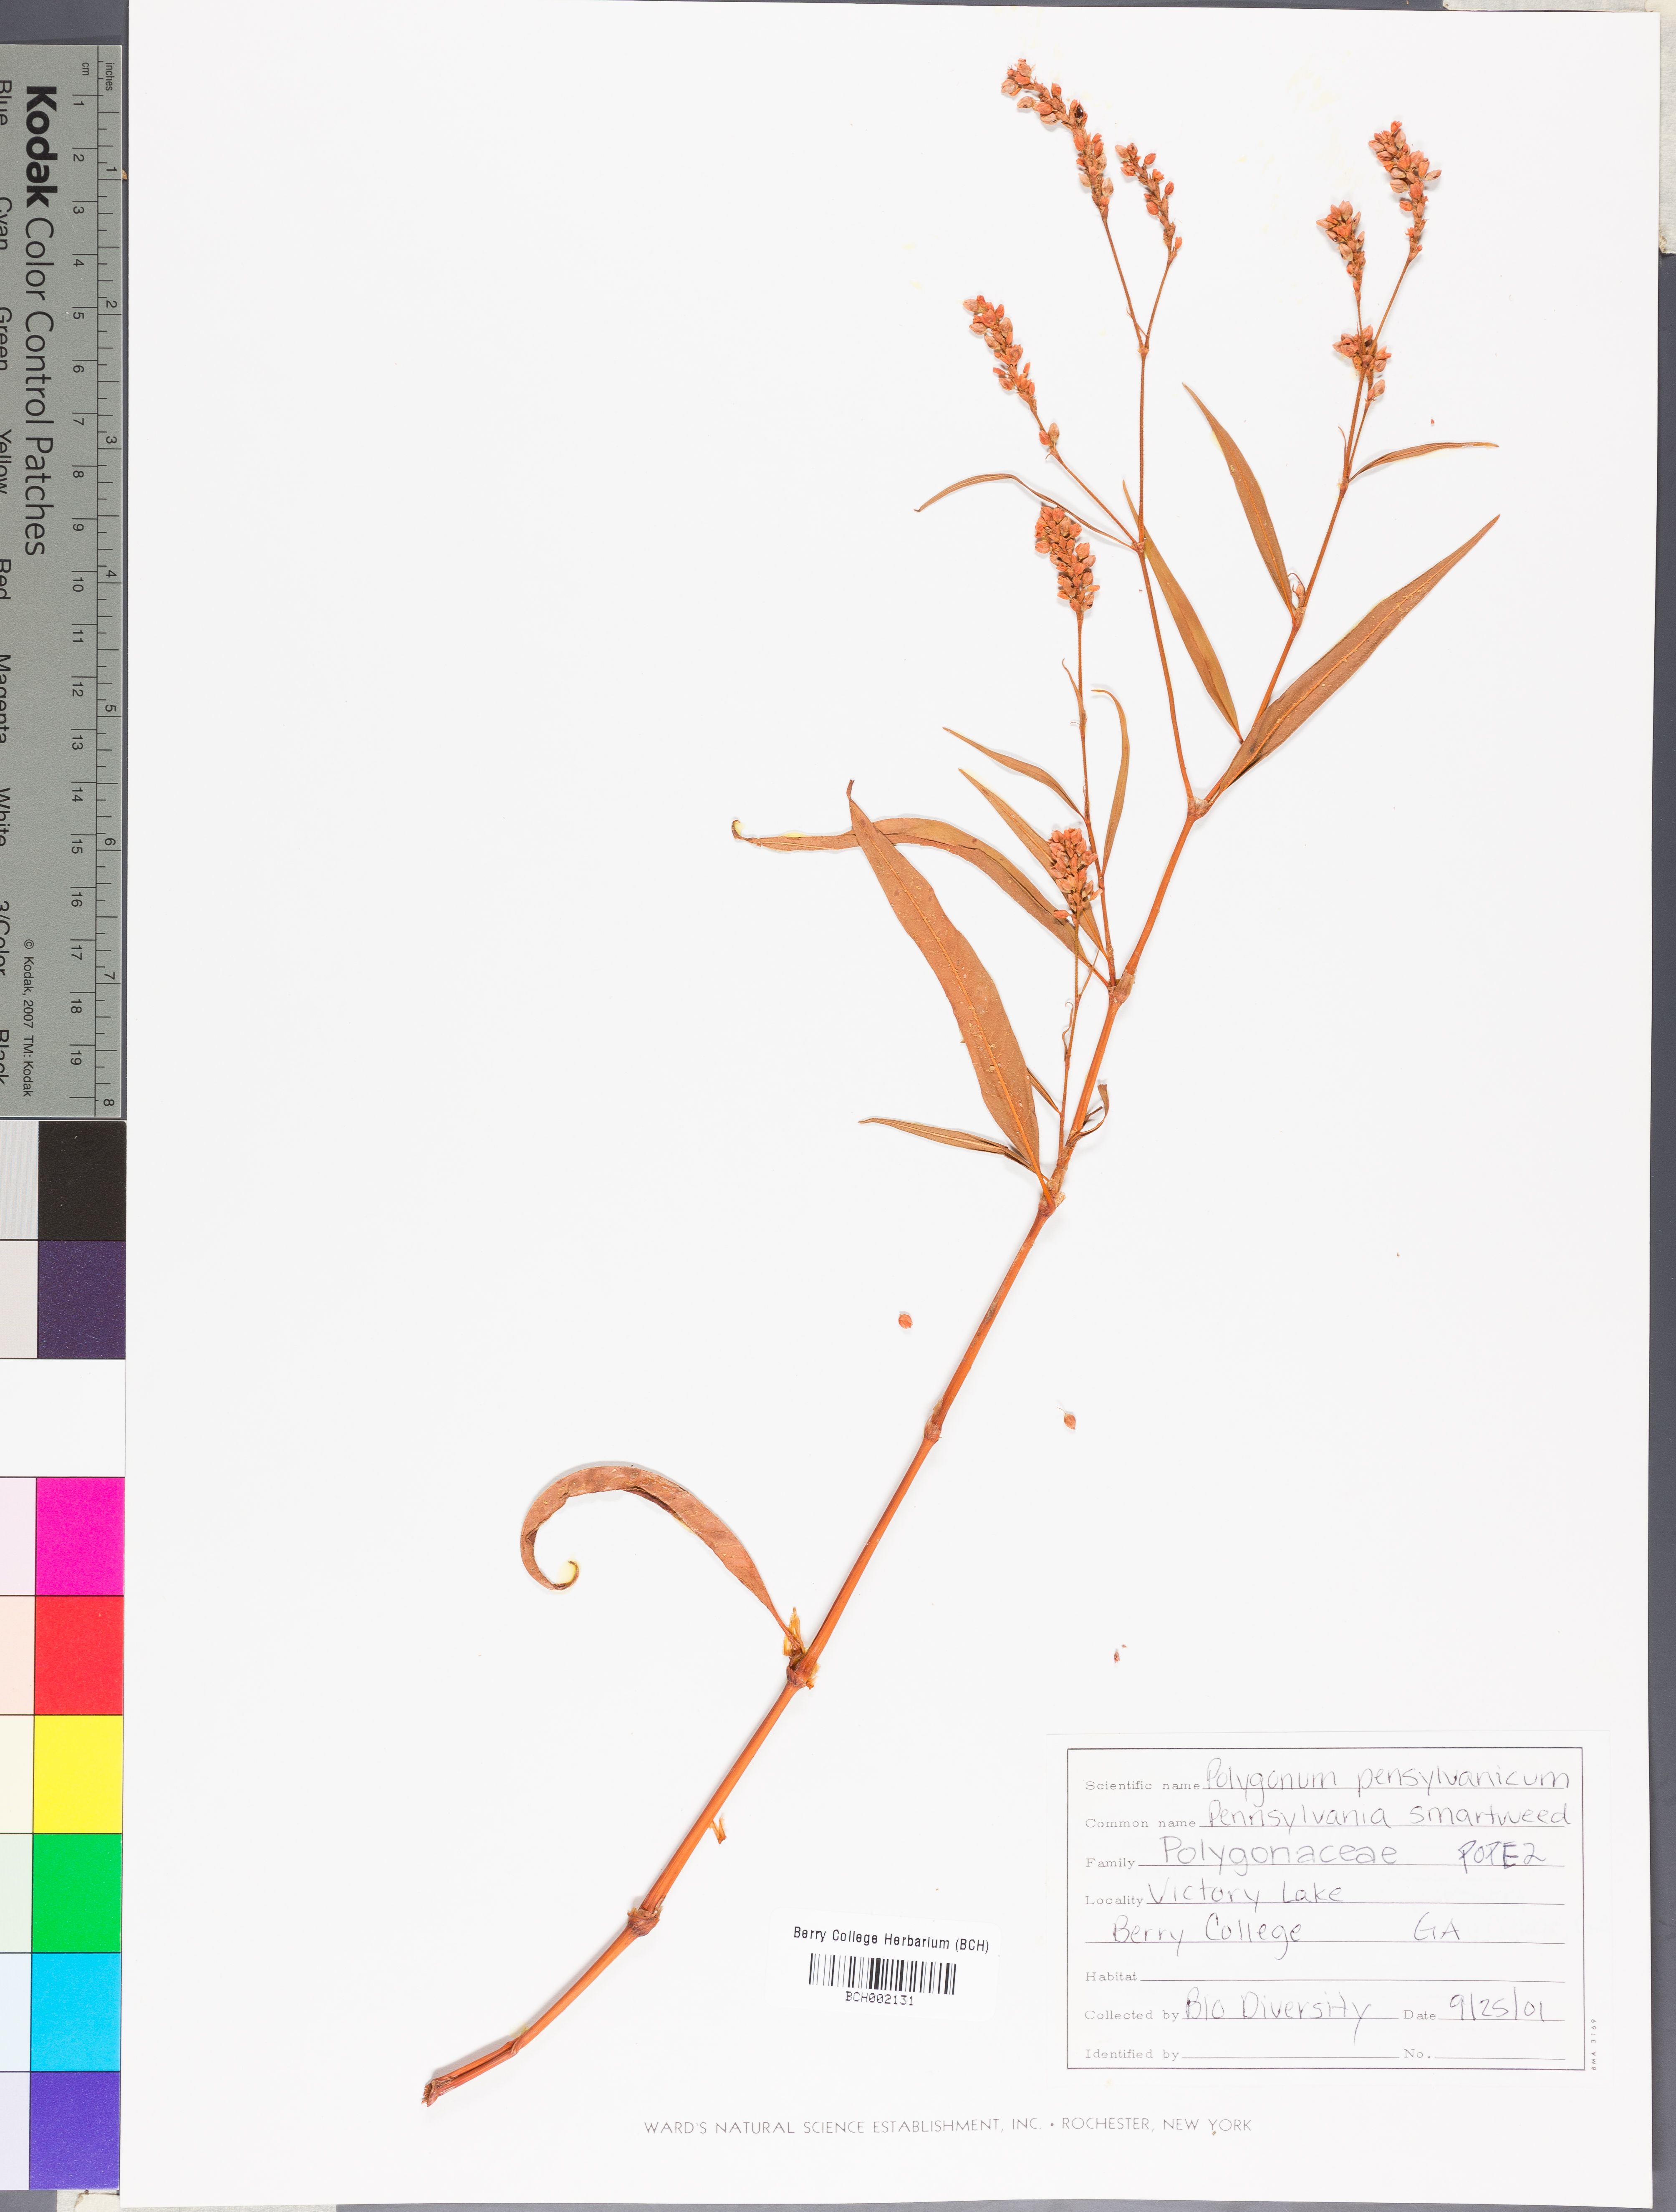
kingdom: Plantae
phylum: Tracheophyta
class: Magnoliopsida
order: Caryophyllales
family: Polygonaceae
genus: Persicaria
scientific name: Persicaria pensylvanica
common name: Pinkweed
